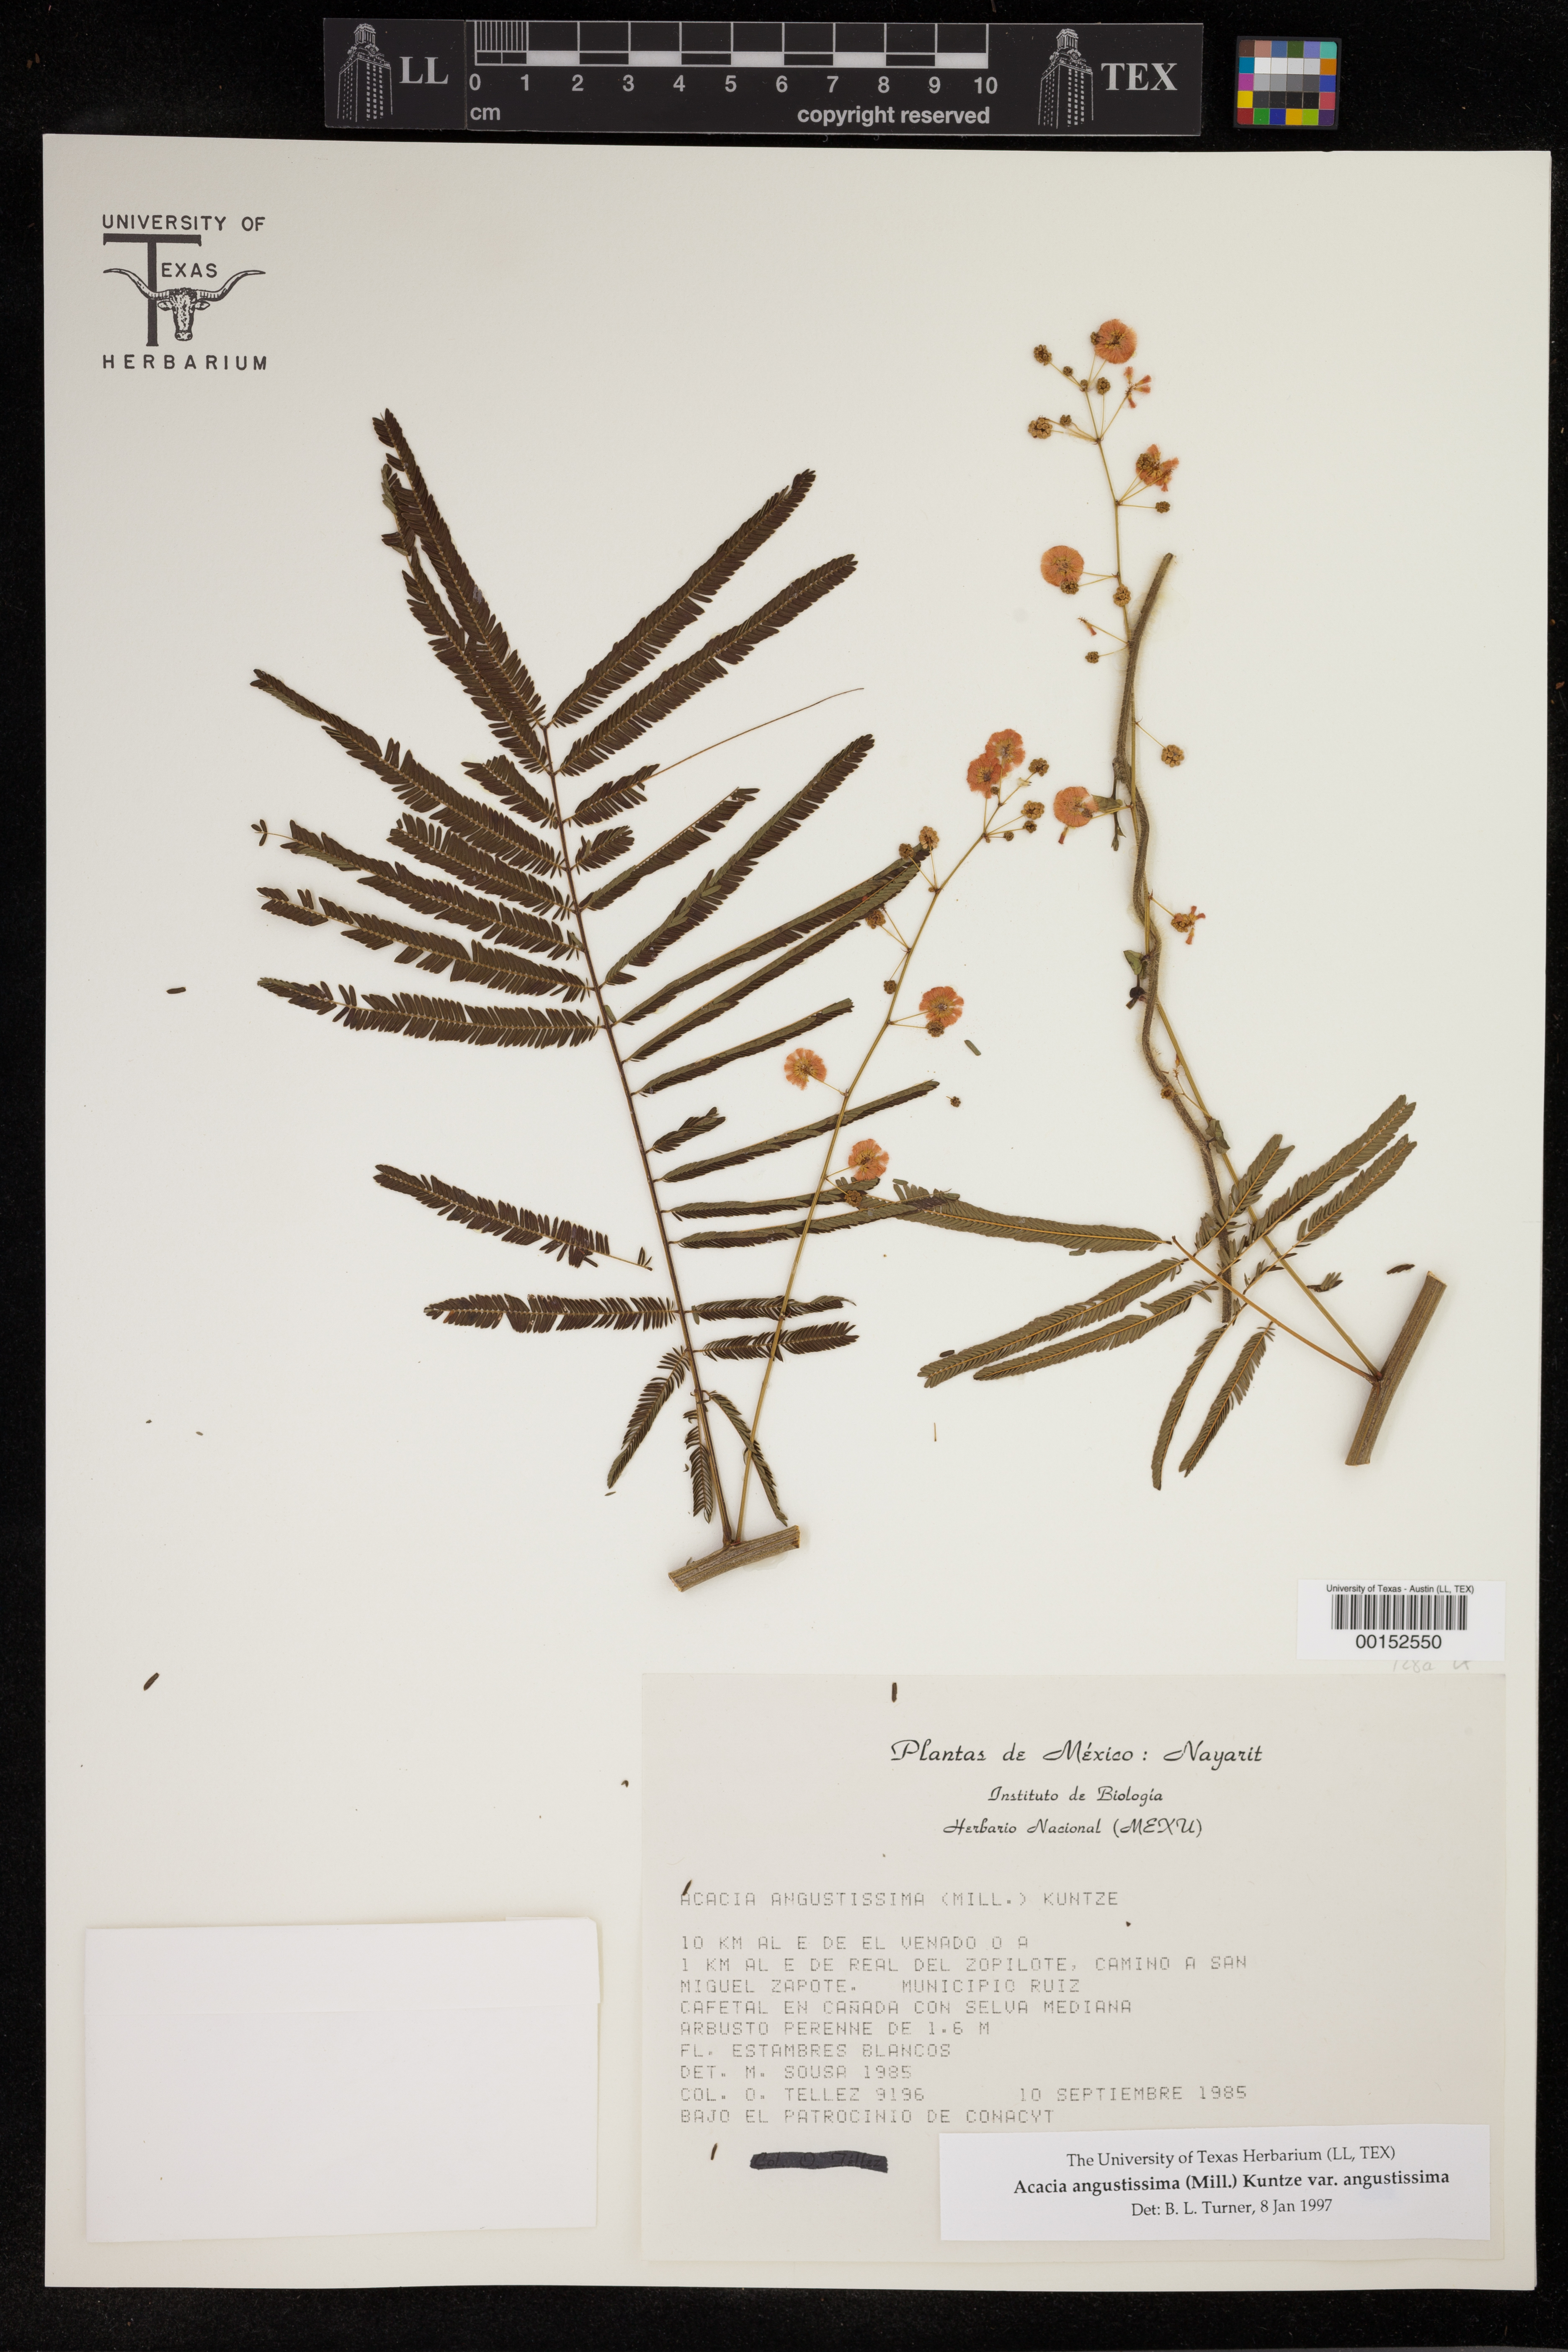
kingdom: Plantae
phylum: Tracheophyta
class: Magnoliopsida
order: Fabales
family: Fabaceae
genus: Acaciella
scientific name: Acaciella angustissima
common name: Prairie acacia
